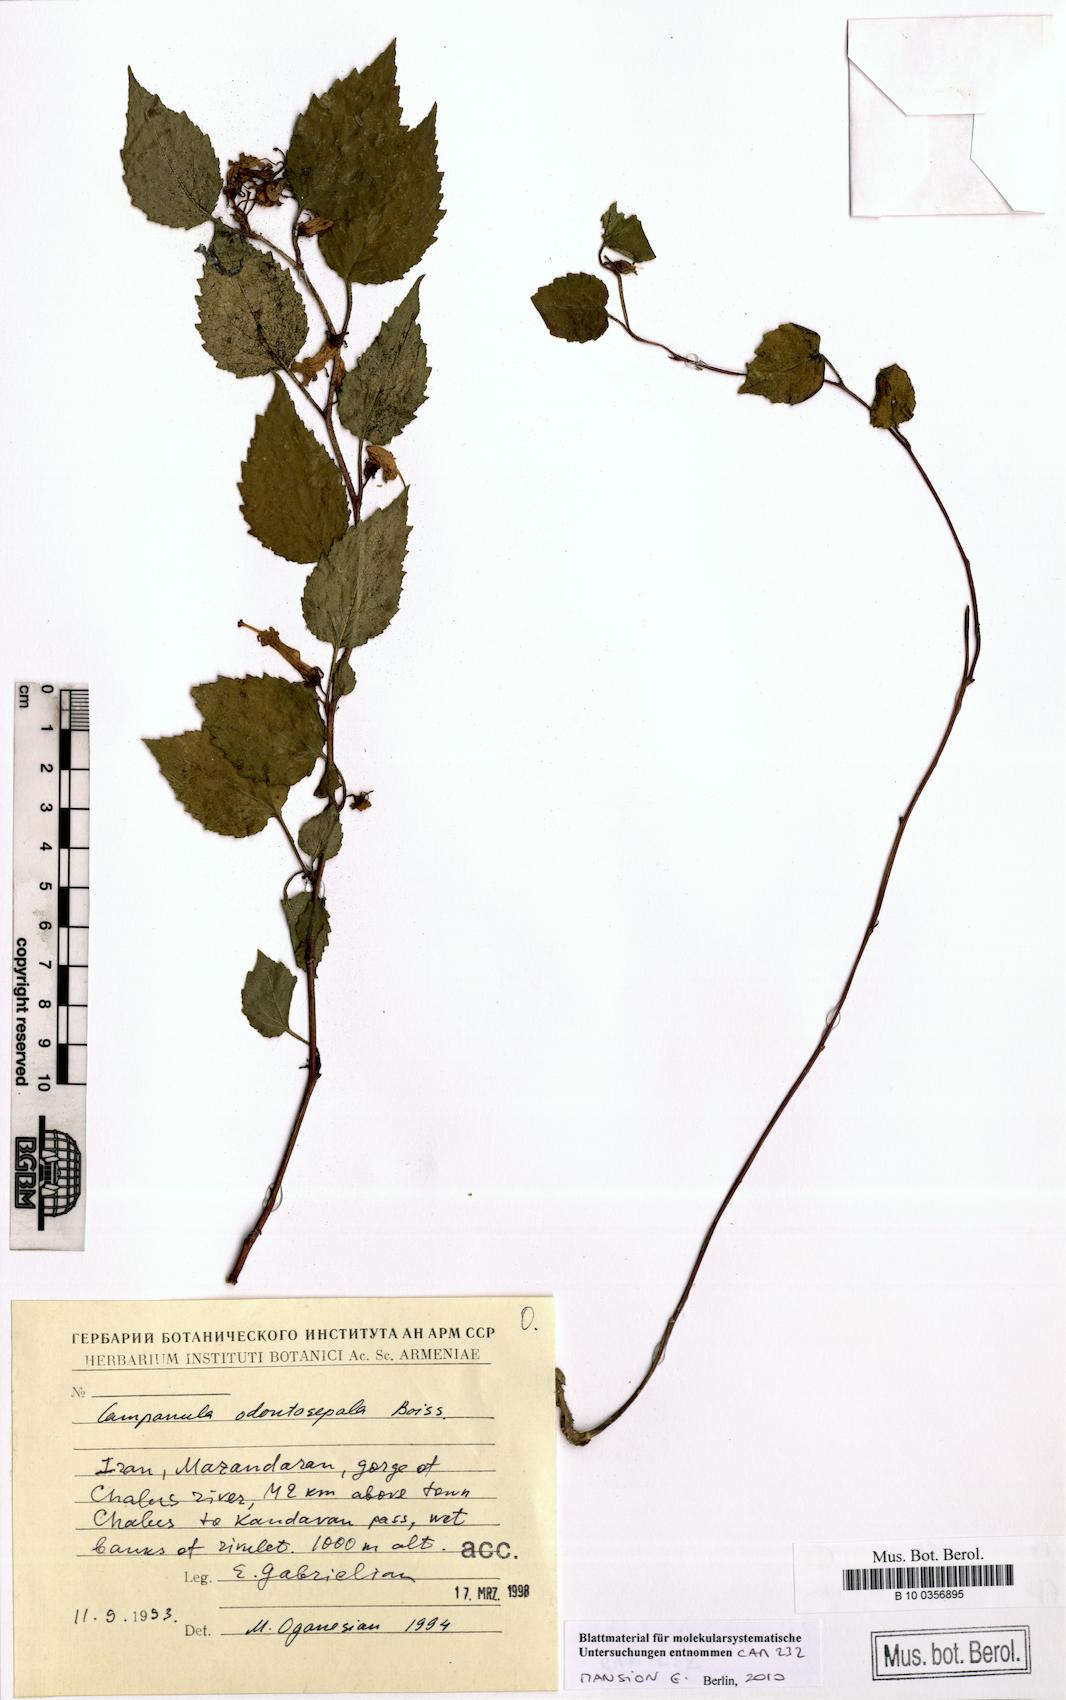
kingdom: Plantae
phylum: Tracheophyta
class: Magnoliopsida
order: Asterales
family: Campanulaceae
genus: Campanula
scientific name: Campanula odontosepala
